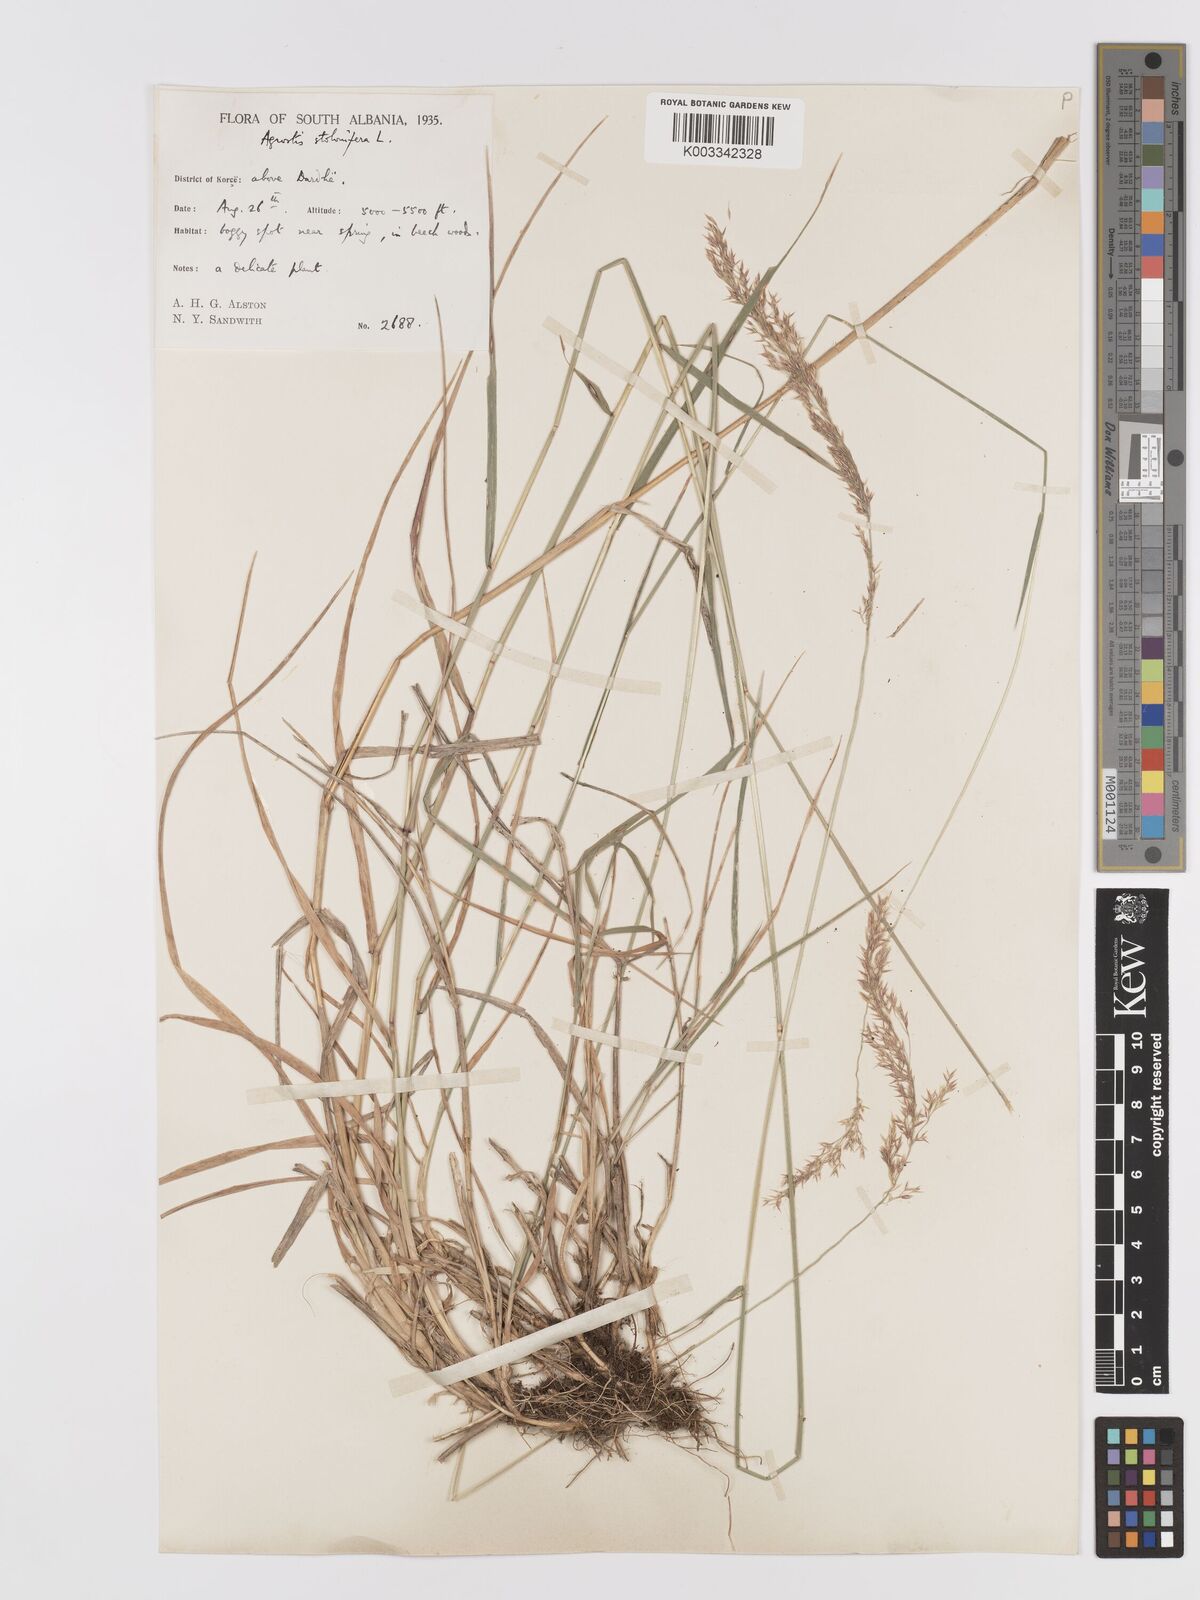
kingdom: Plantae
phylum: Tracheophyta
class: Liliopsida
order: Poales
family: Poaceae
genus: Agrostis
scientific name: Agrostis gigantea
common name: Black bent
